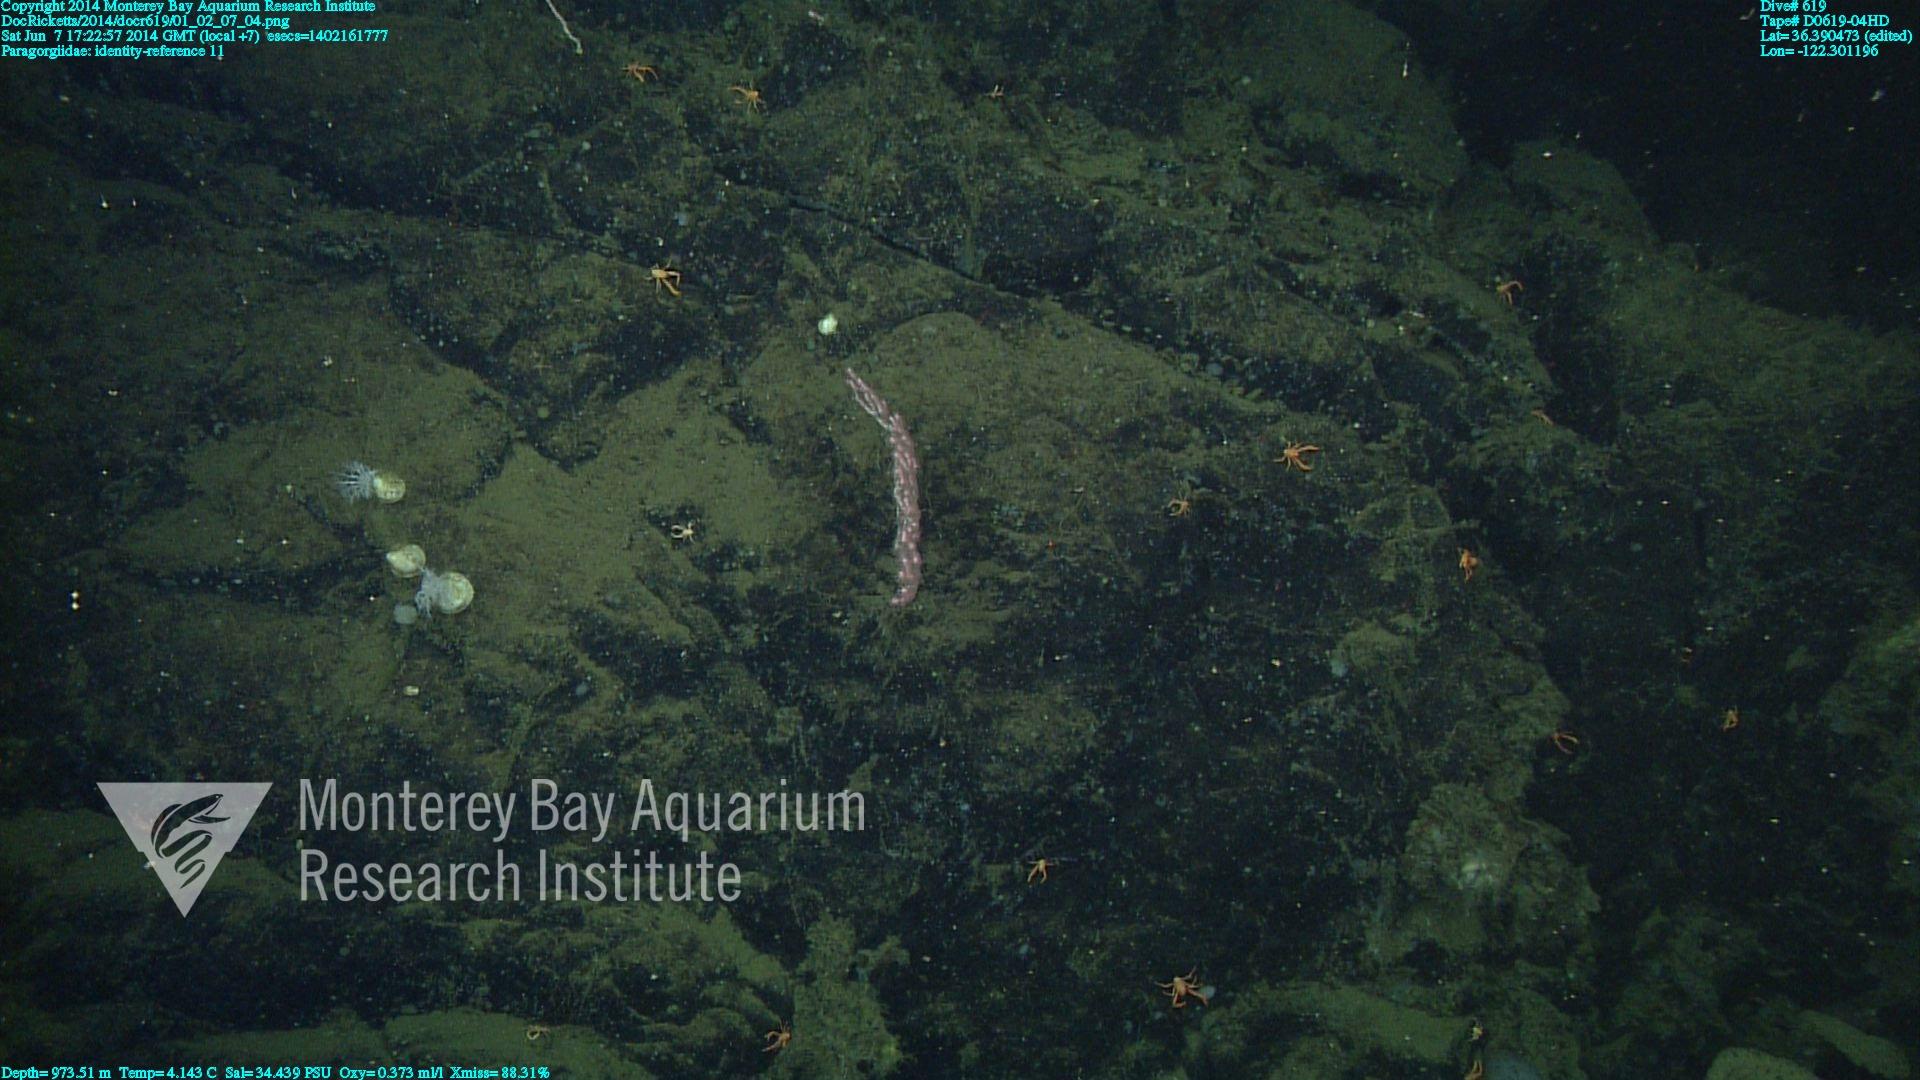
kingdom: Animalia
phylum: Cnidaria
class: Anthozoa
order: Scleralcyonacea
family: Coralliidae
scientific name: Coralliidae
